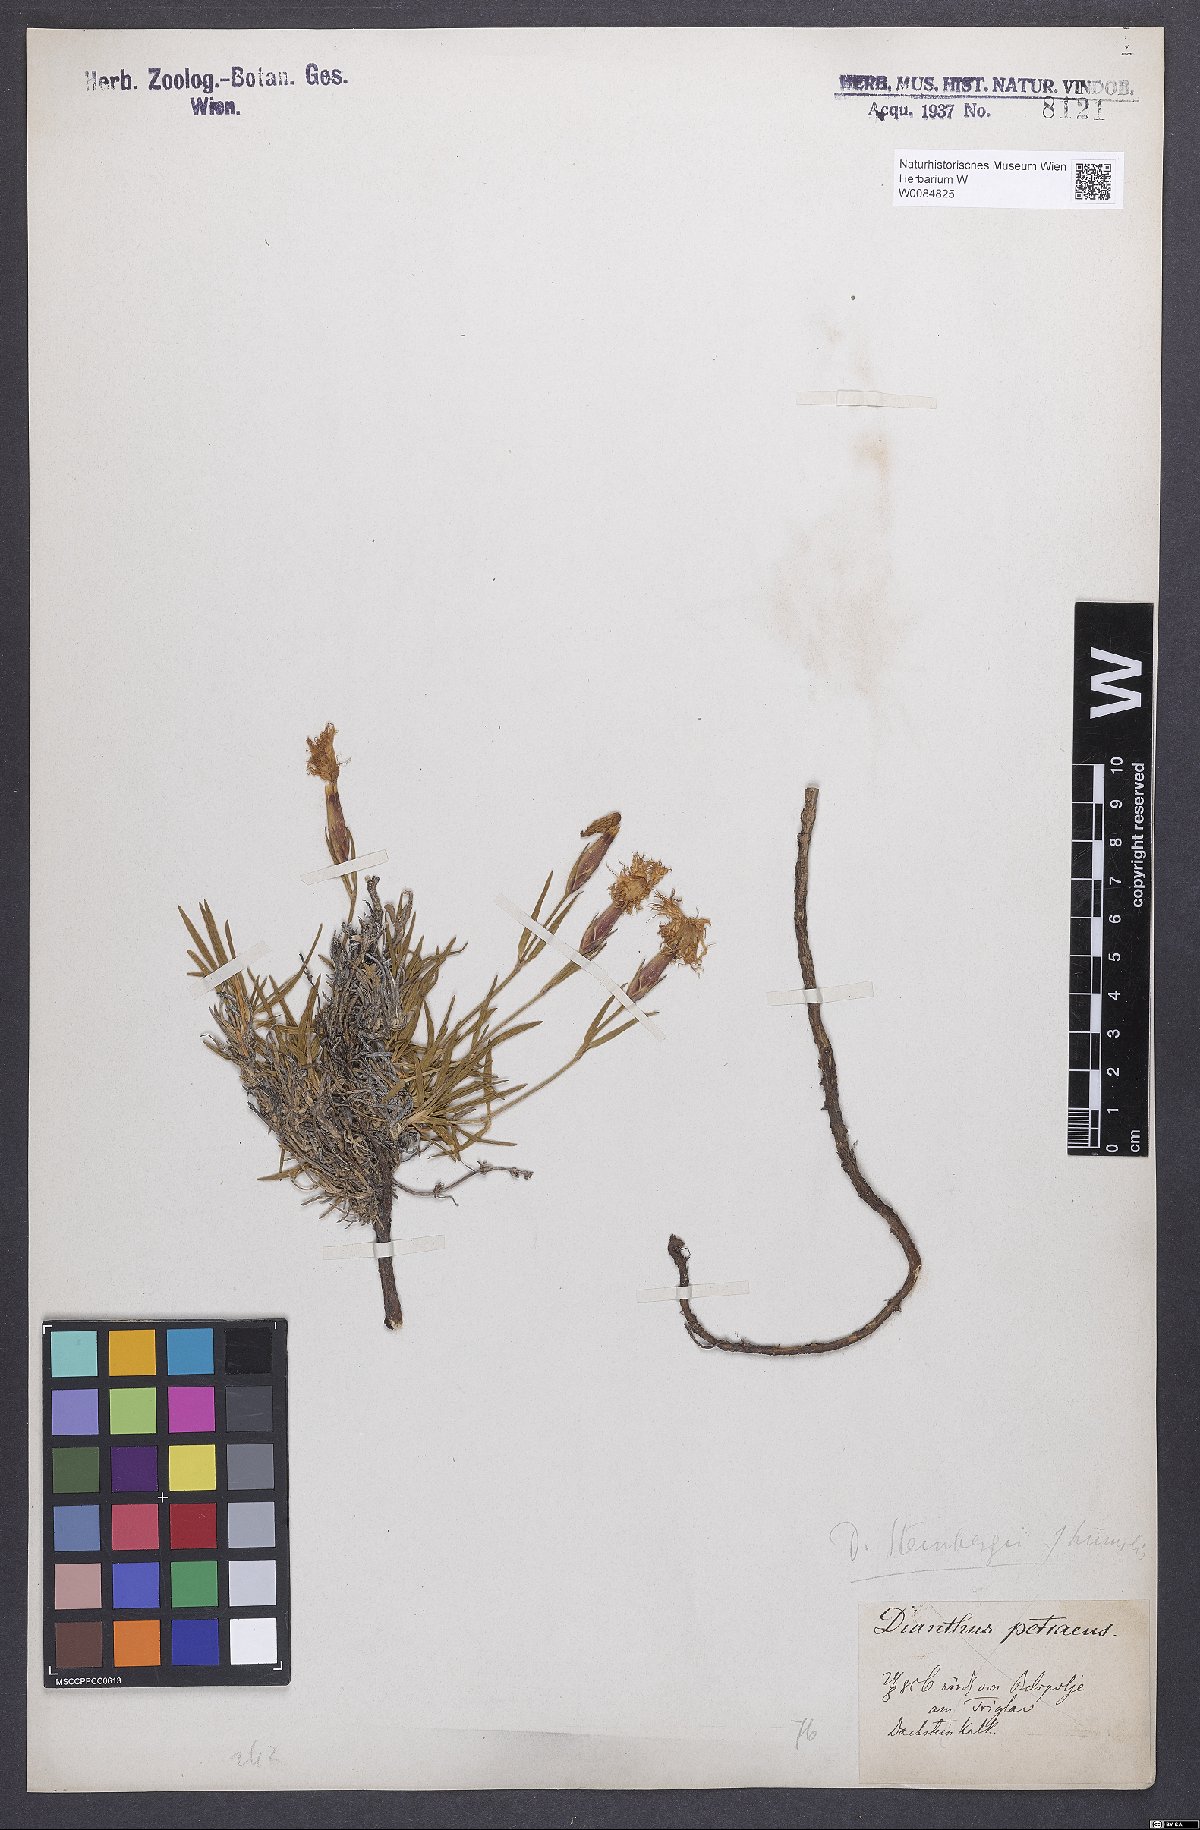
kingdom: Plantae
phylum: Tracheophyta
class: Magnoliopsida
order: Caryophyllales
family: Caryophyllaceae
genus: Dianthus
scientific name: Dianthus monspessulanus
